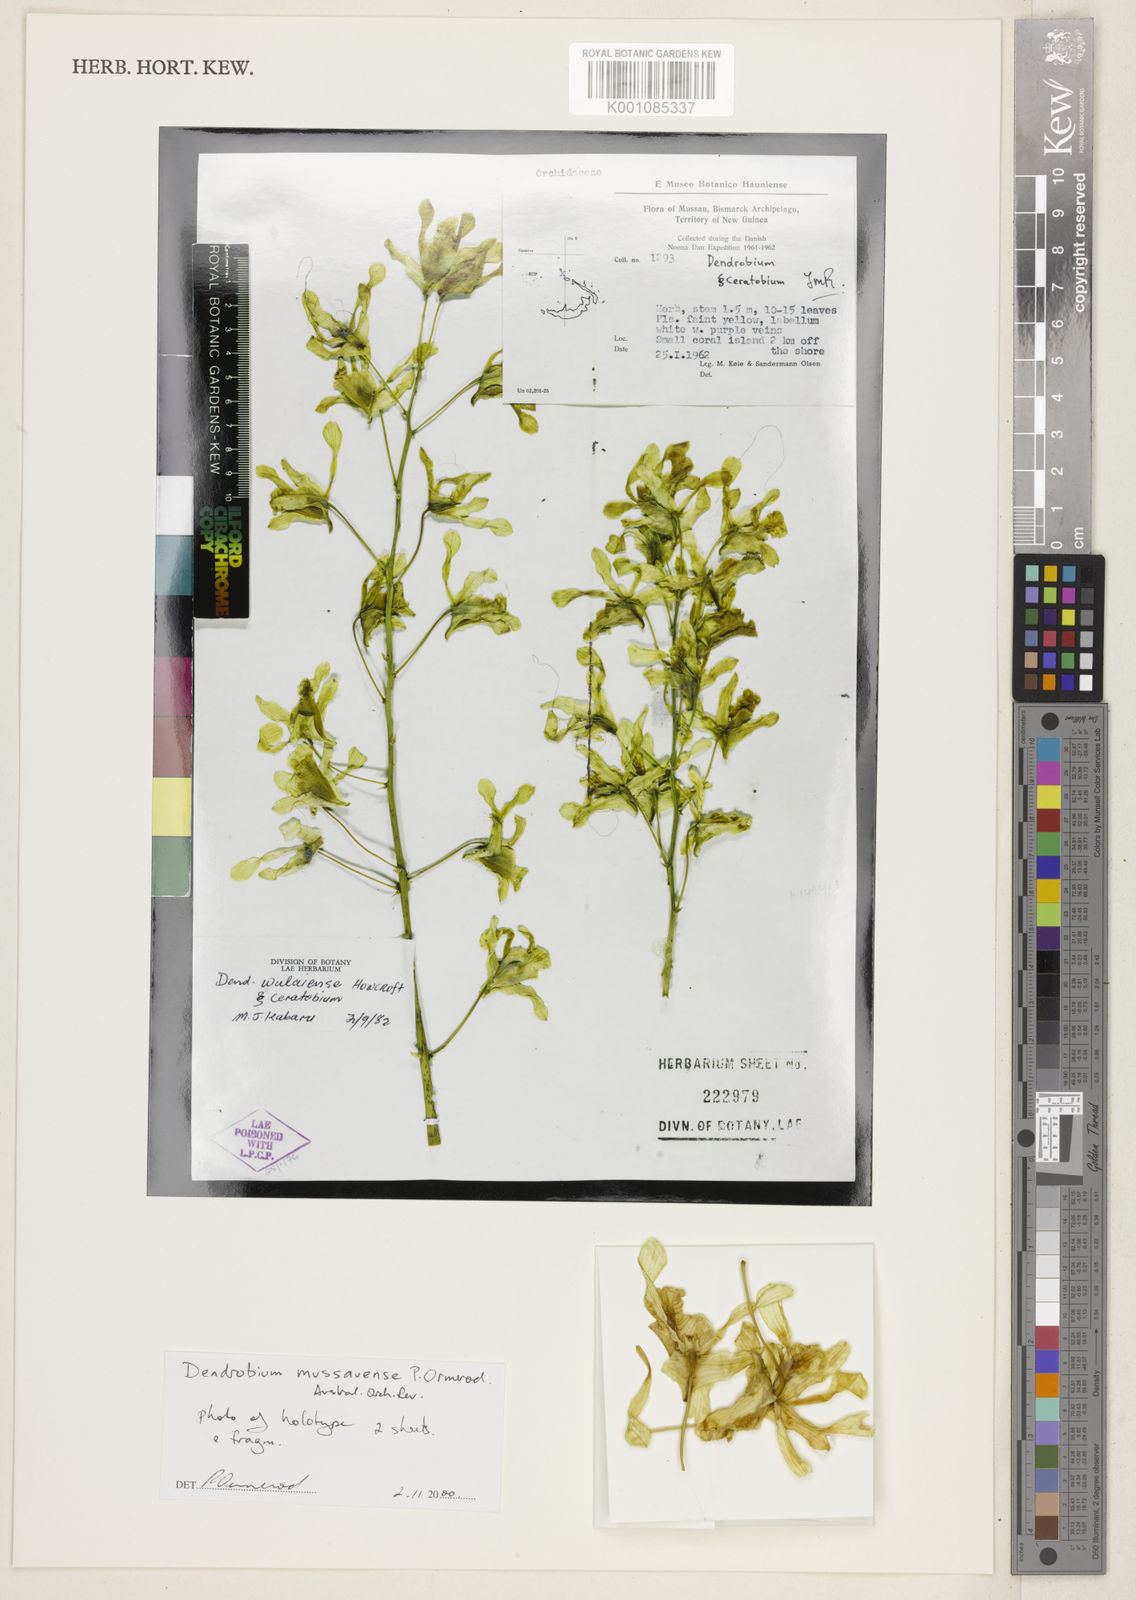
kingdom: Plantae
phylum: Tracheophyta
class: Liliopsida
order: Asparagales
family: Orchidaceae
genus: Dendrobium
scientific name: Dendrobium mussauense
